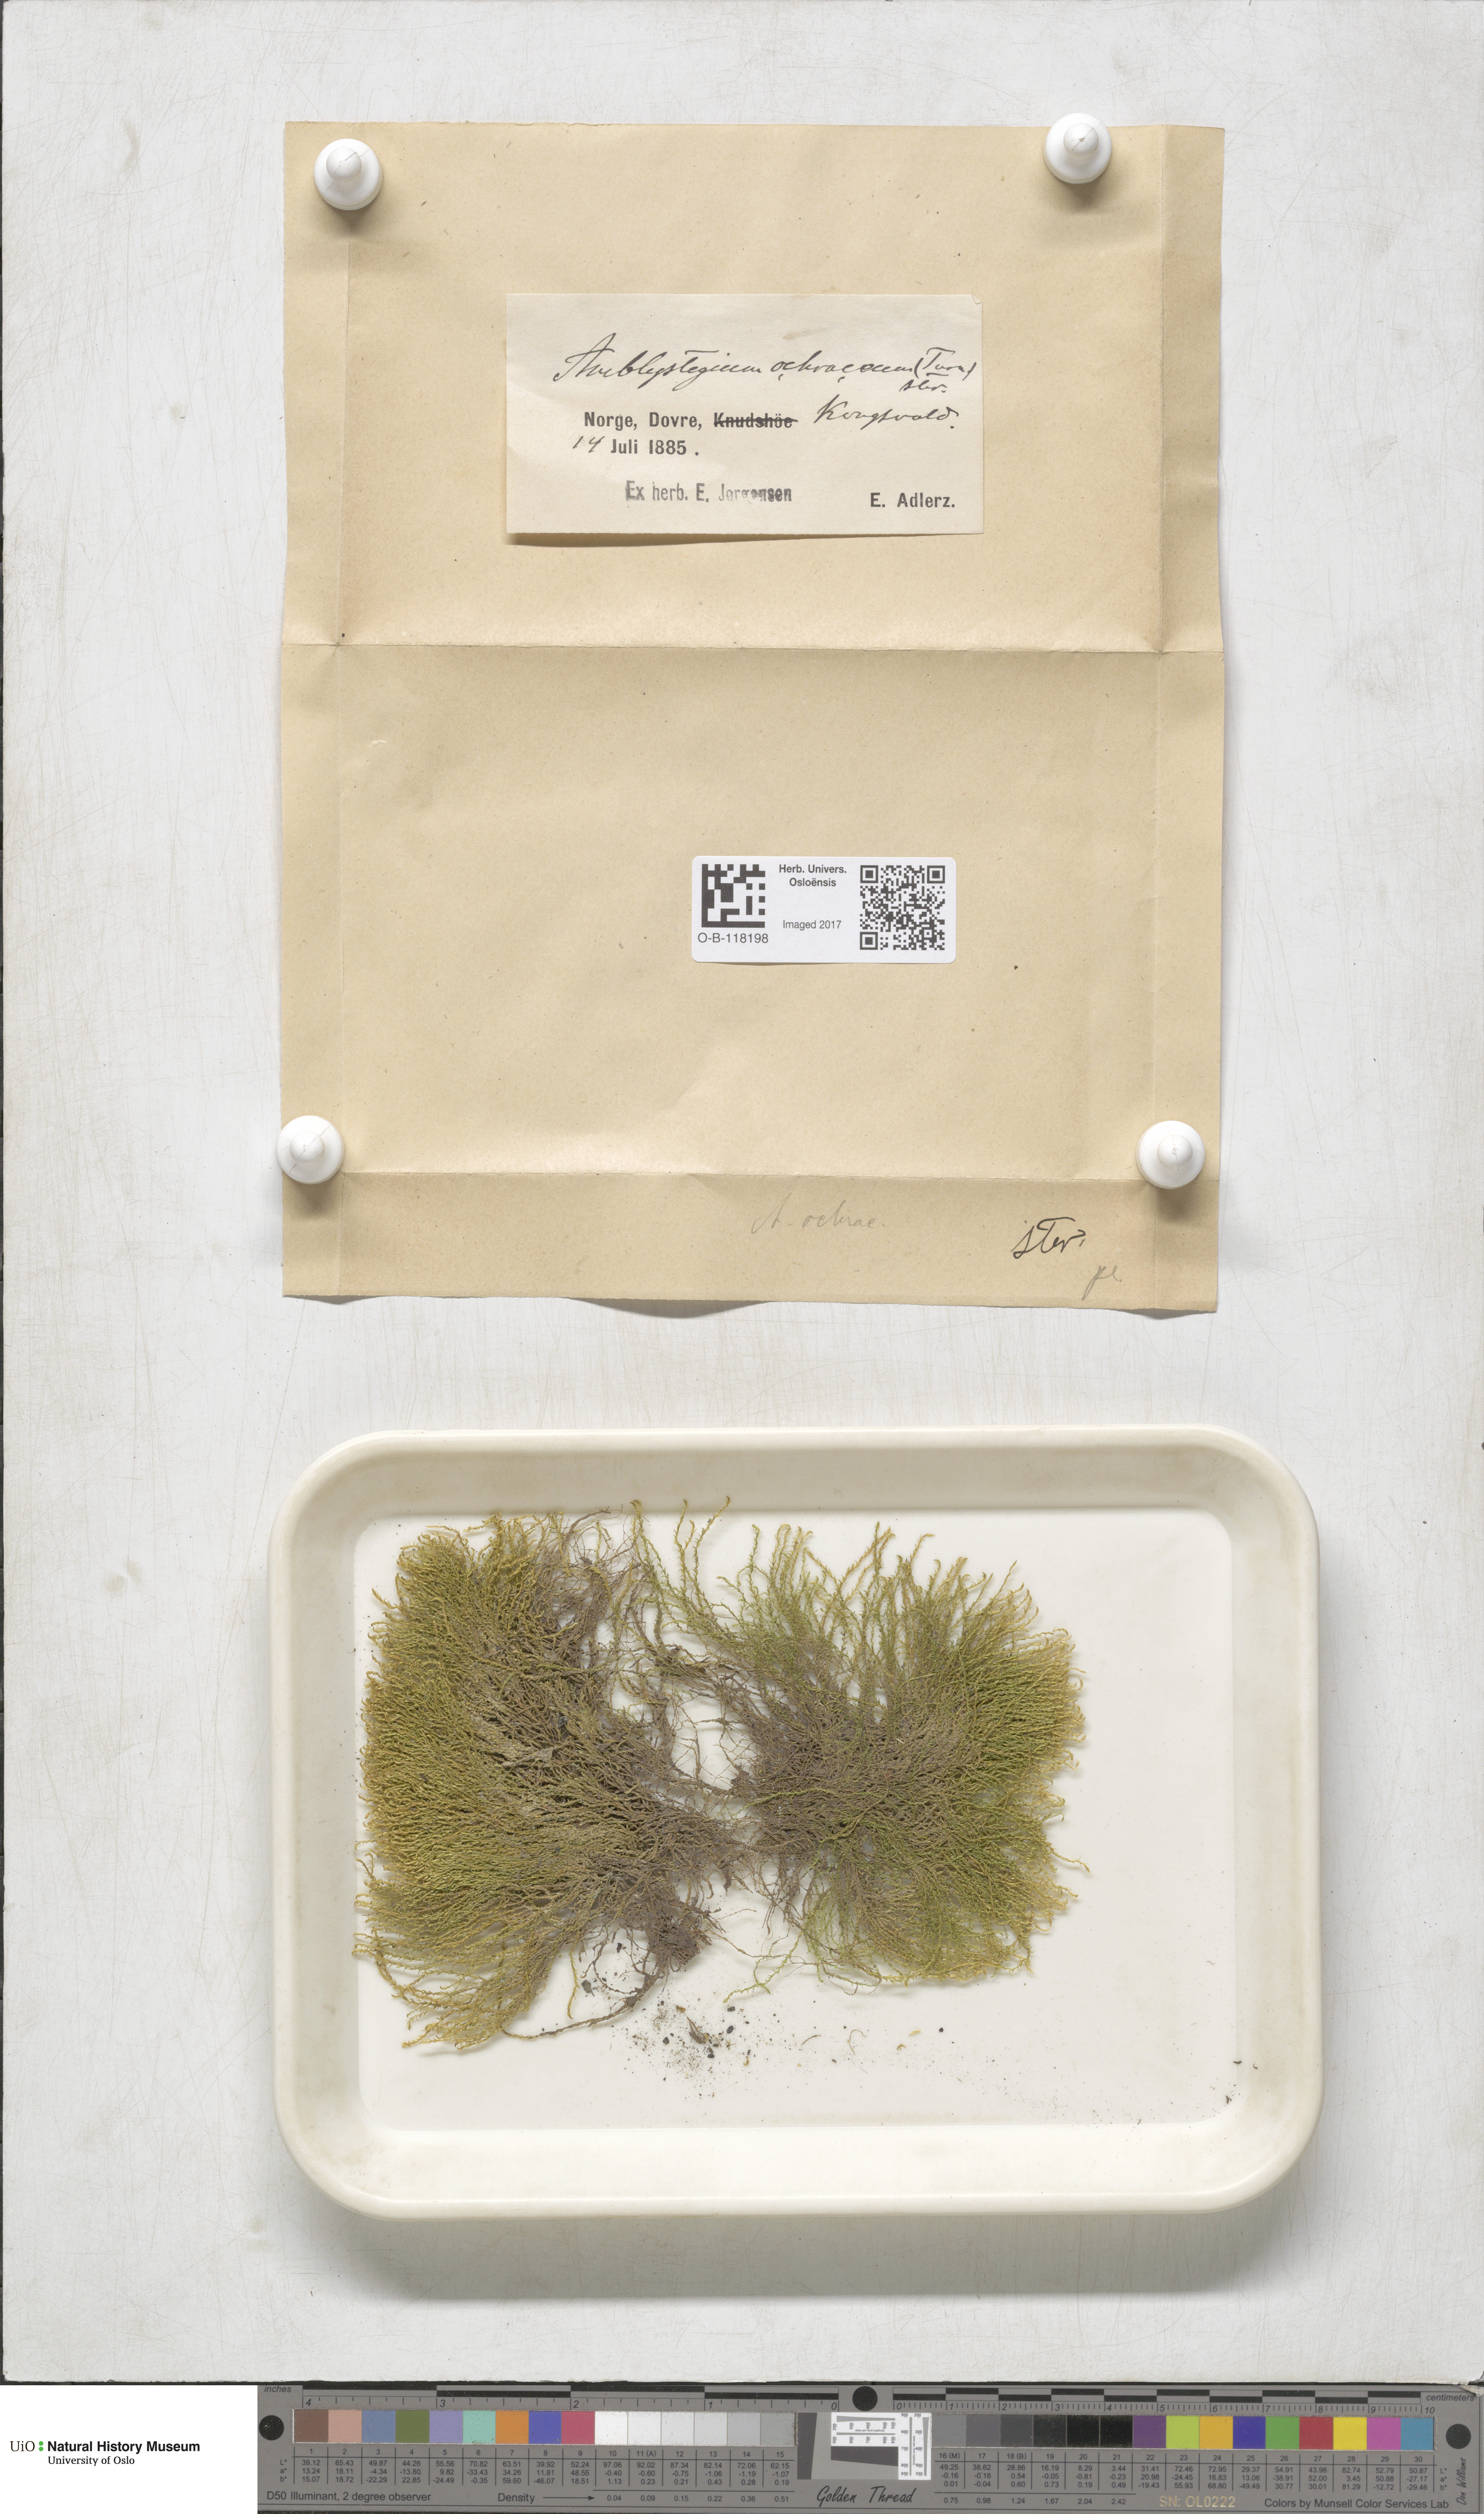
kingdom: Plantae
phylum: Bryophyta
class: Bryopsida
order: Hypnales
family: Scorpidiaceae
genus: Hygrohypnella
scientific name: Hygrohypnella ochracea
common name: Hygrohypnum moss
